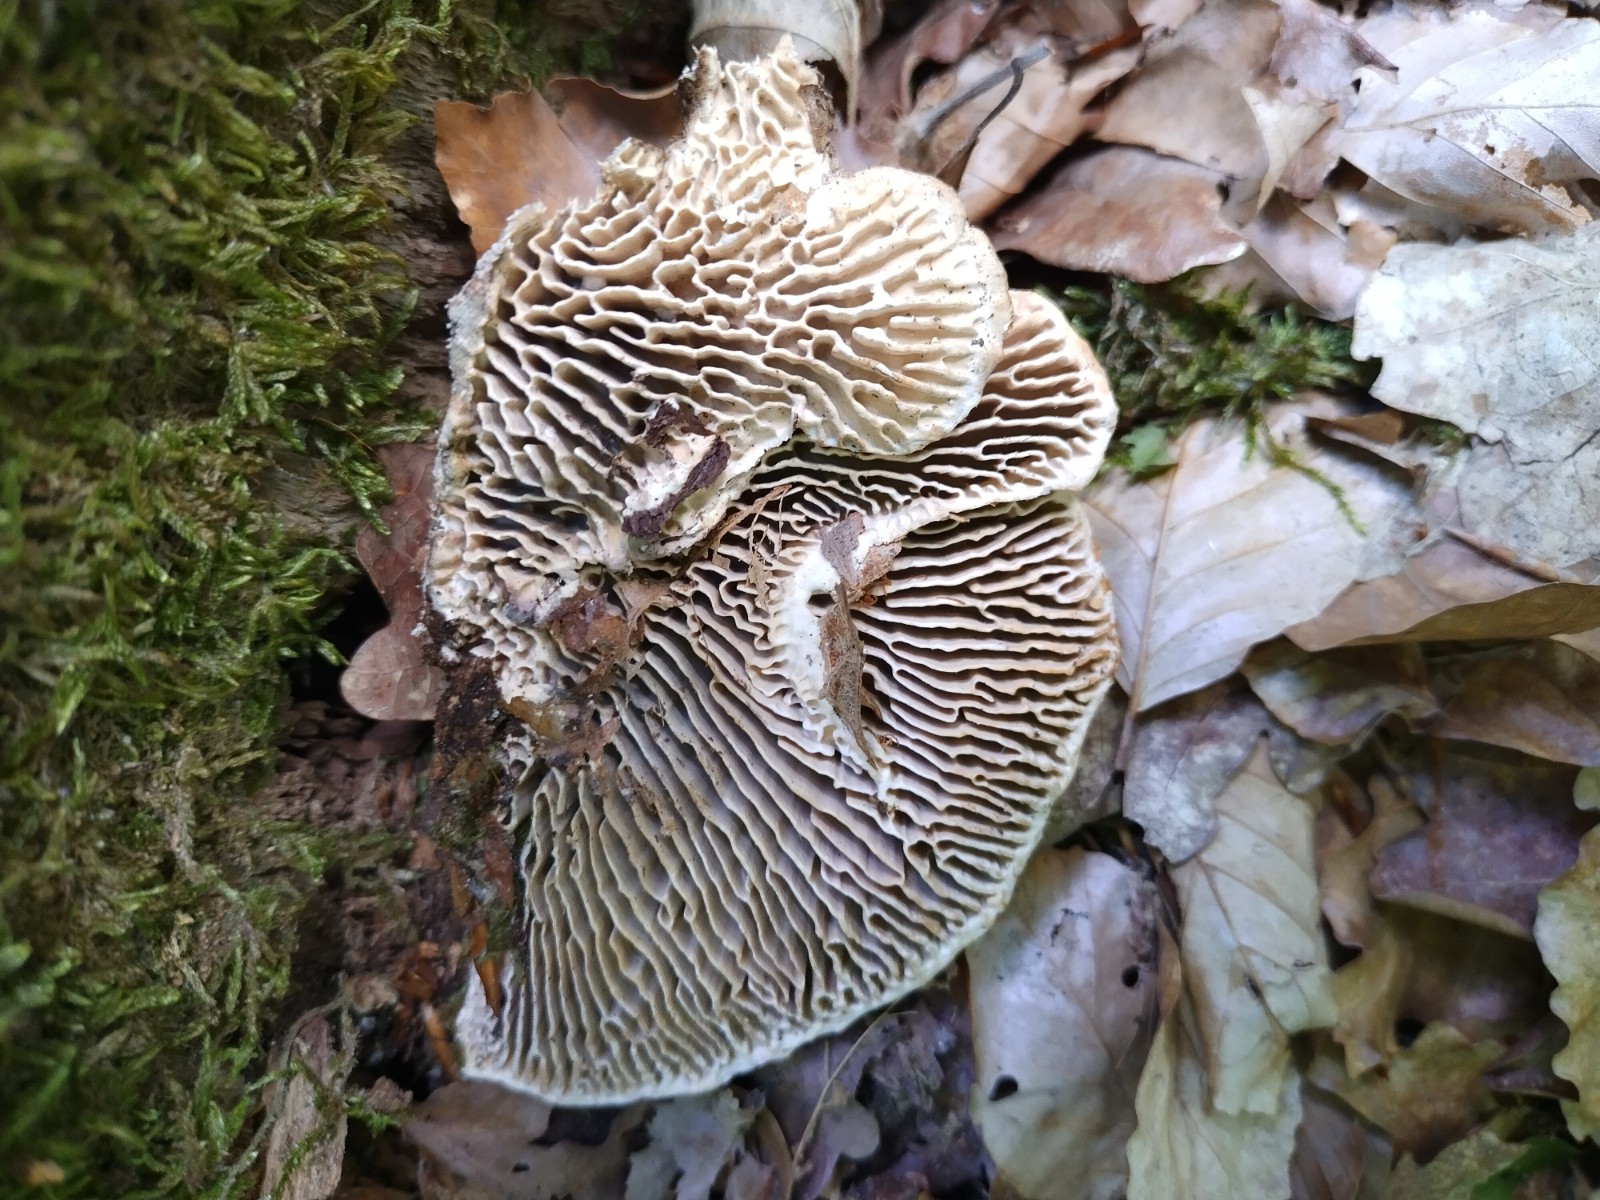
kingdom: Fungi
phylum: Basidiomycota
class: Agaricomycetes
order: Polyporales
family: Polyporaceae
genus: Lenzites
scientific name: Lenzites betulinus
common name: birke-læderporesvamp
